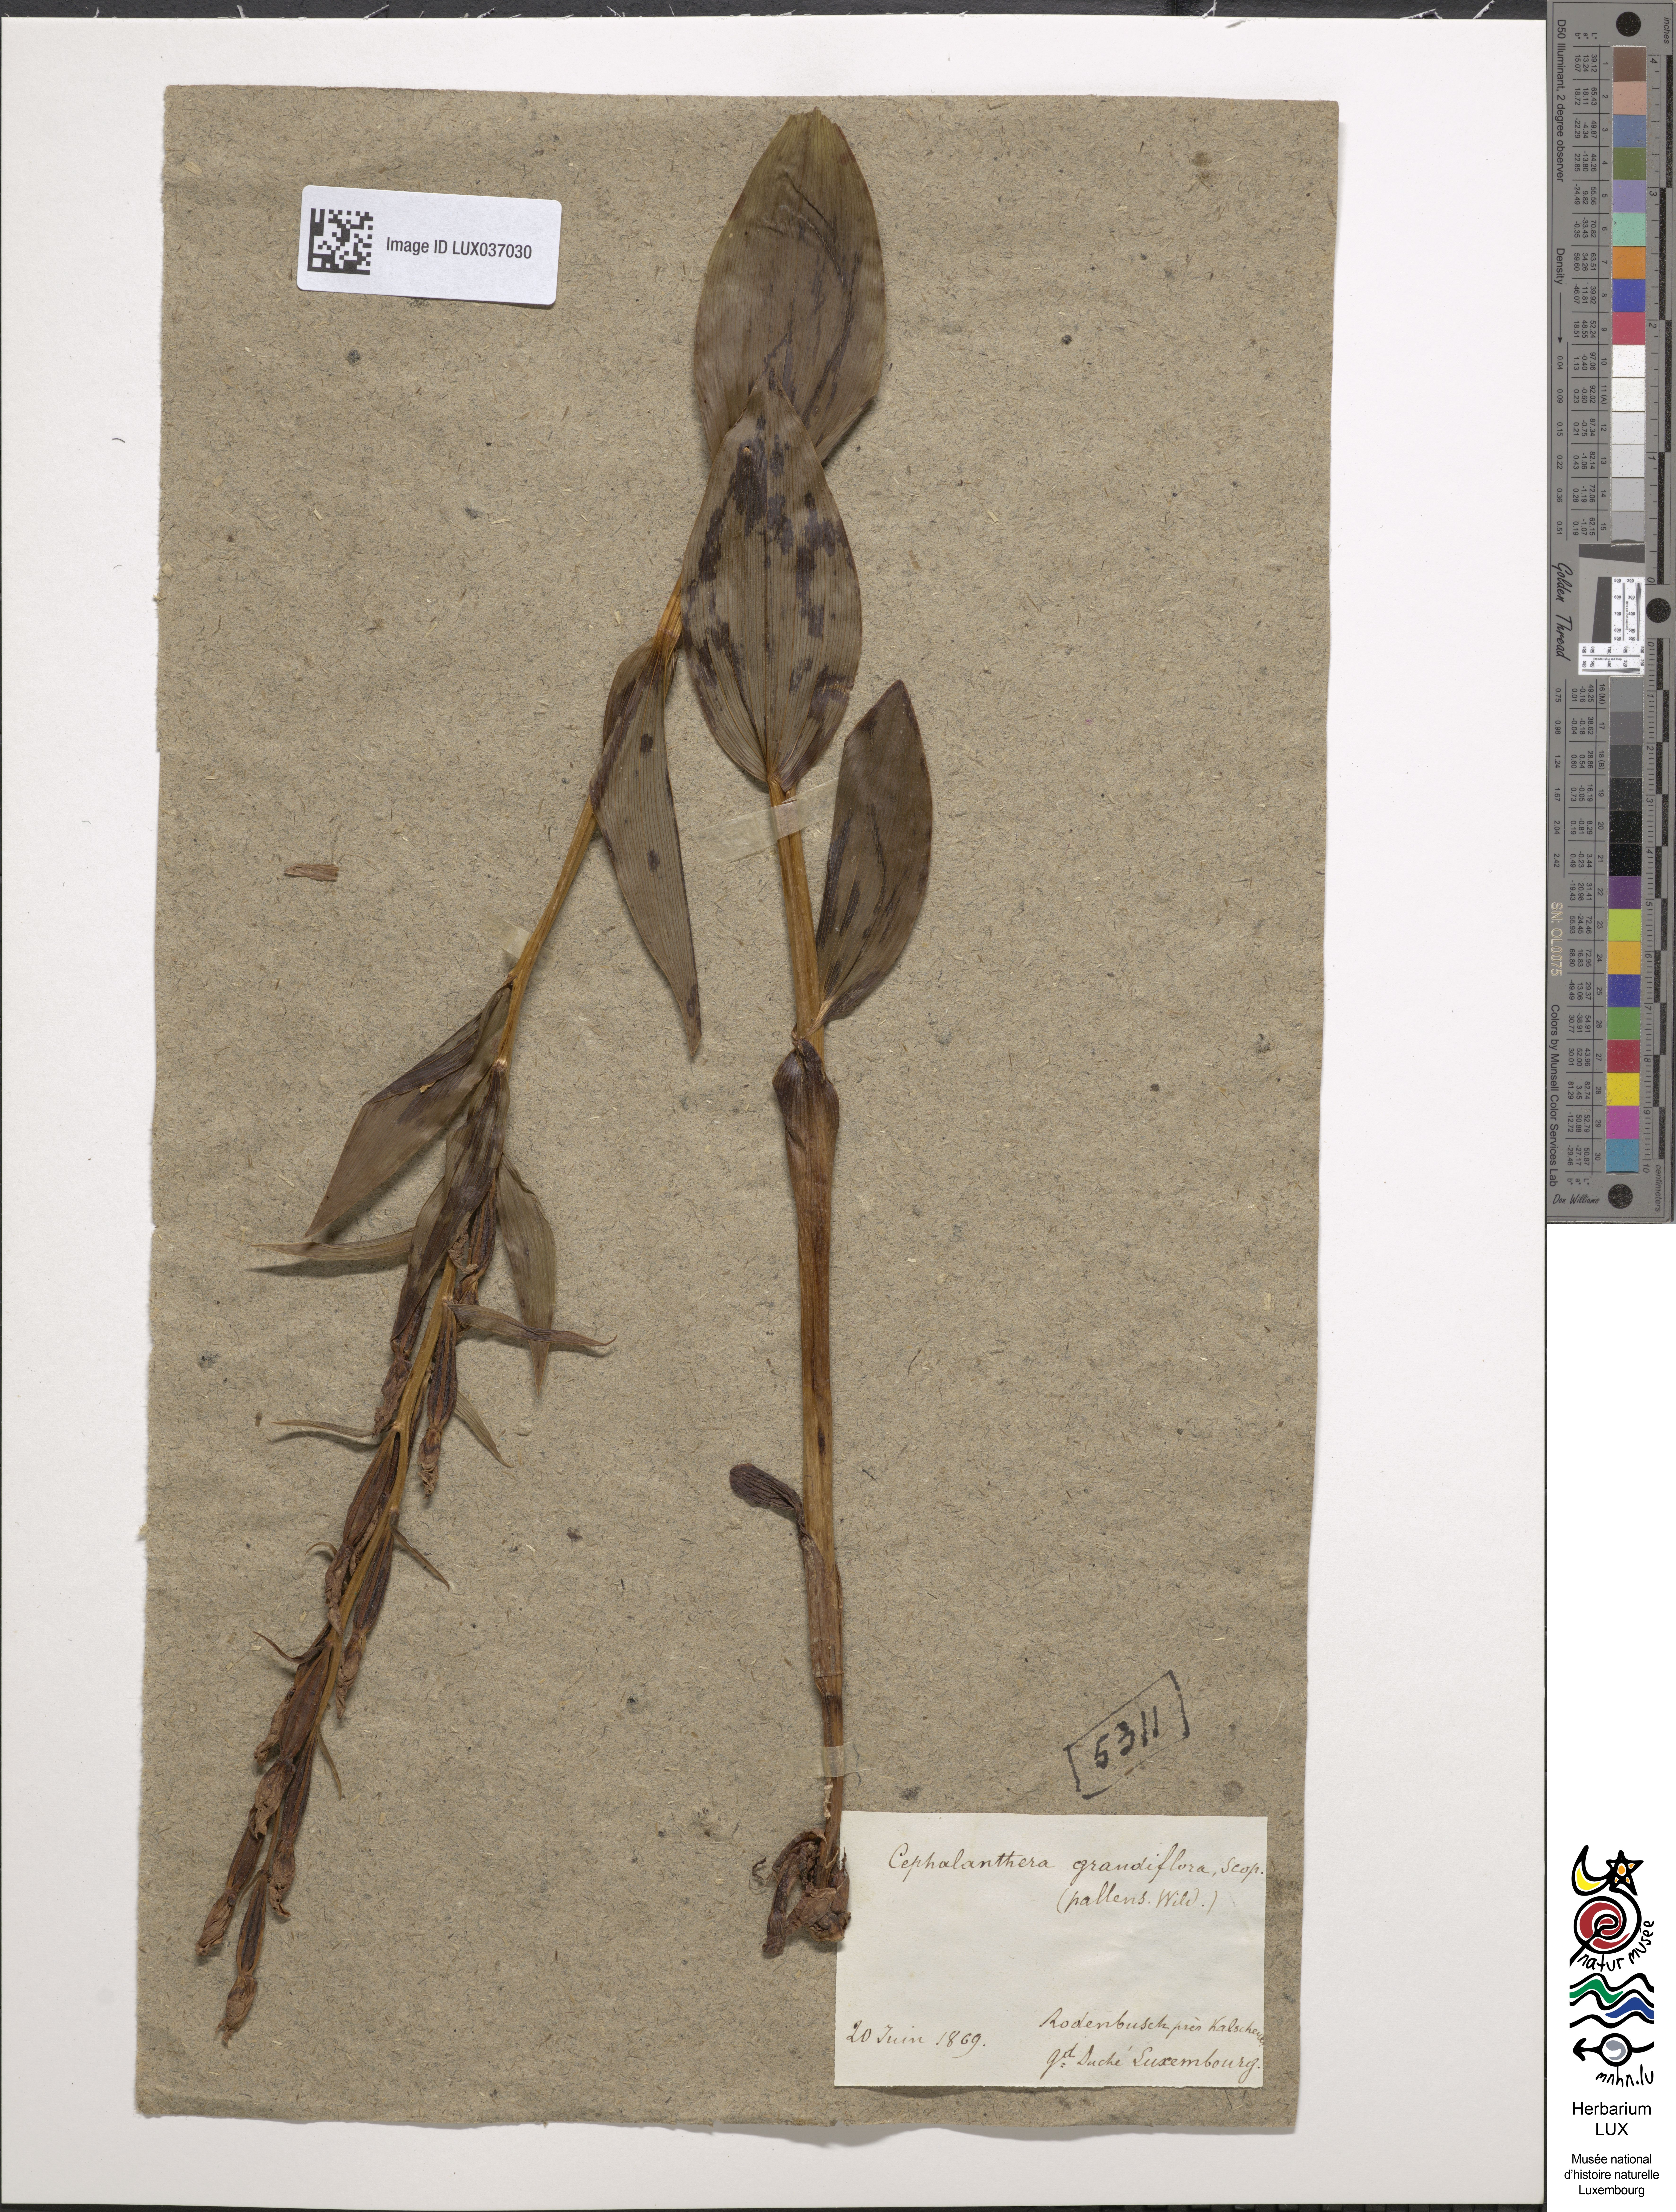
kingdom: Plantae
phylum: Tracheophyta
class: Liliopsida
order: Asparagales
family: Orchidaceae
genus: Cephalanthera
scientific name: Cephalanthera damasonium
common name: White helleborine
